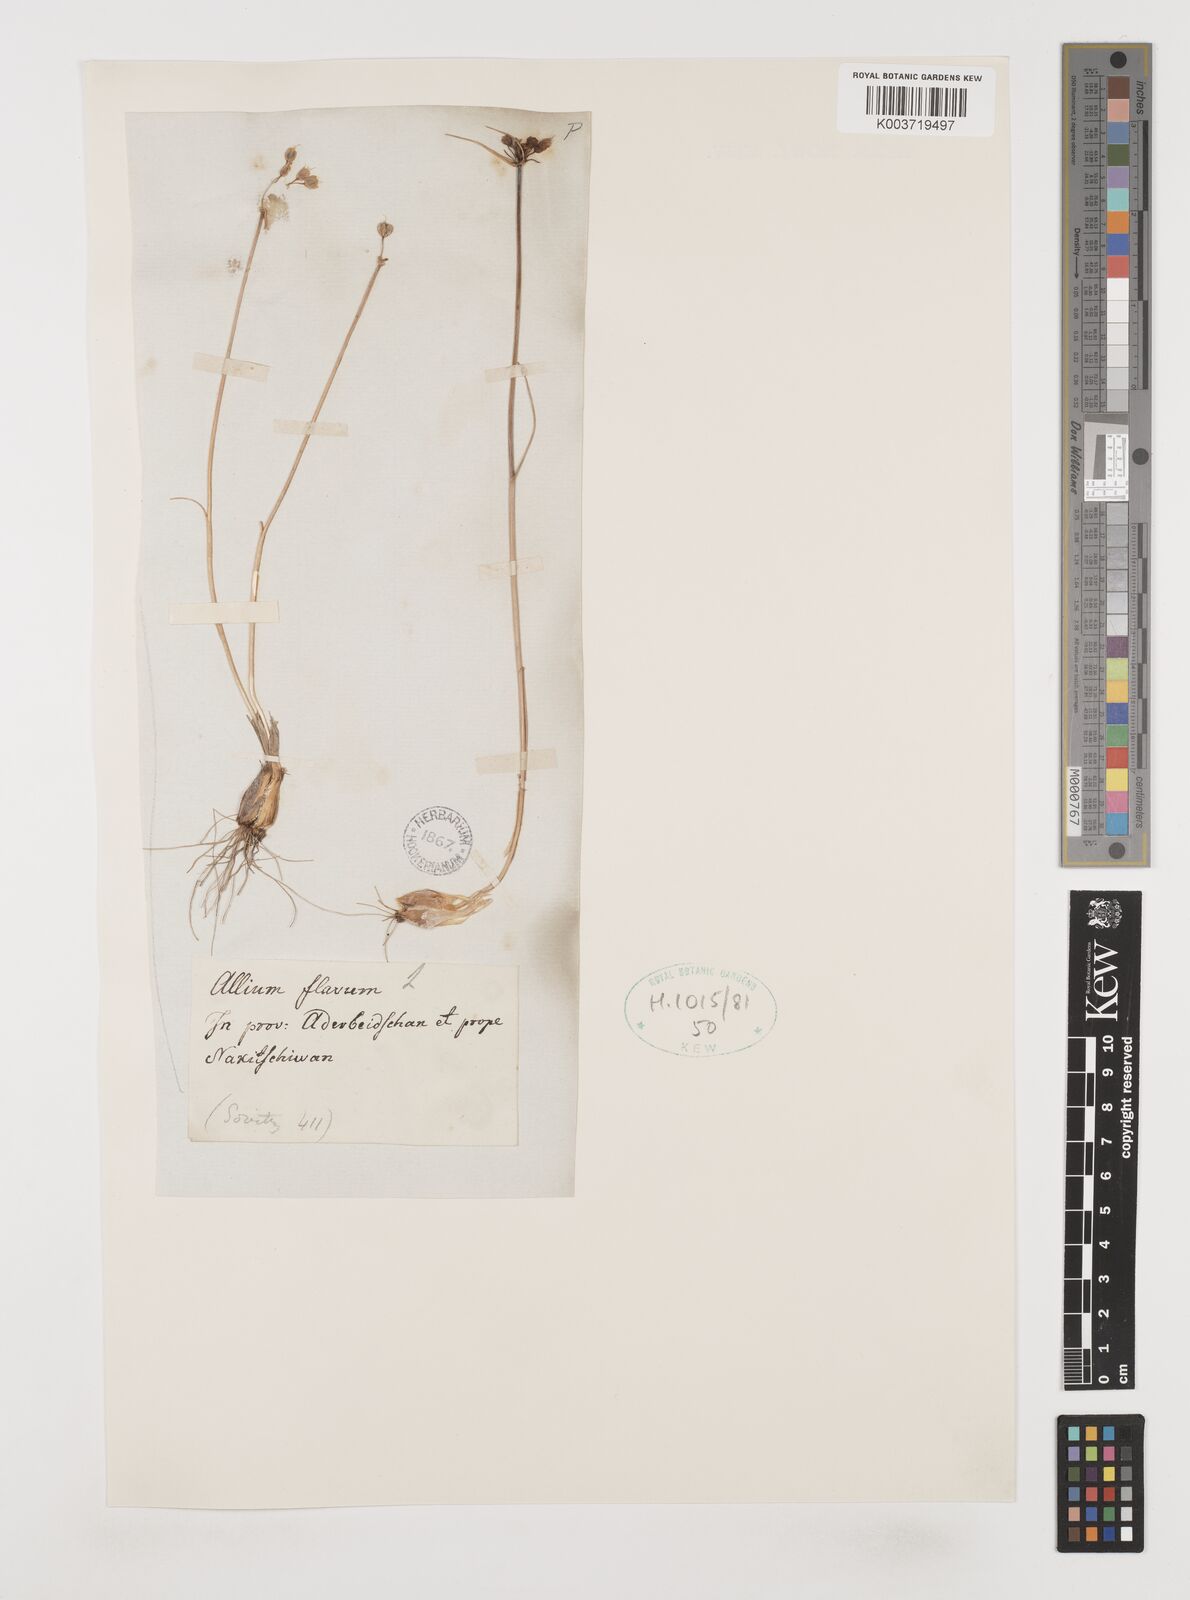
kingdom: Plantae
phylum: Tracheophyta
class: Liliopsida
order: Asparagales
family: Amaryllidaceae
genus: Allium
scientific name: Allium flavum
